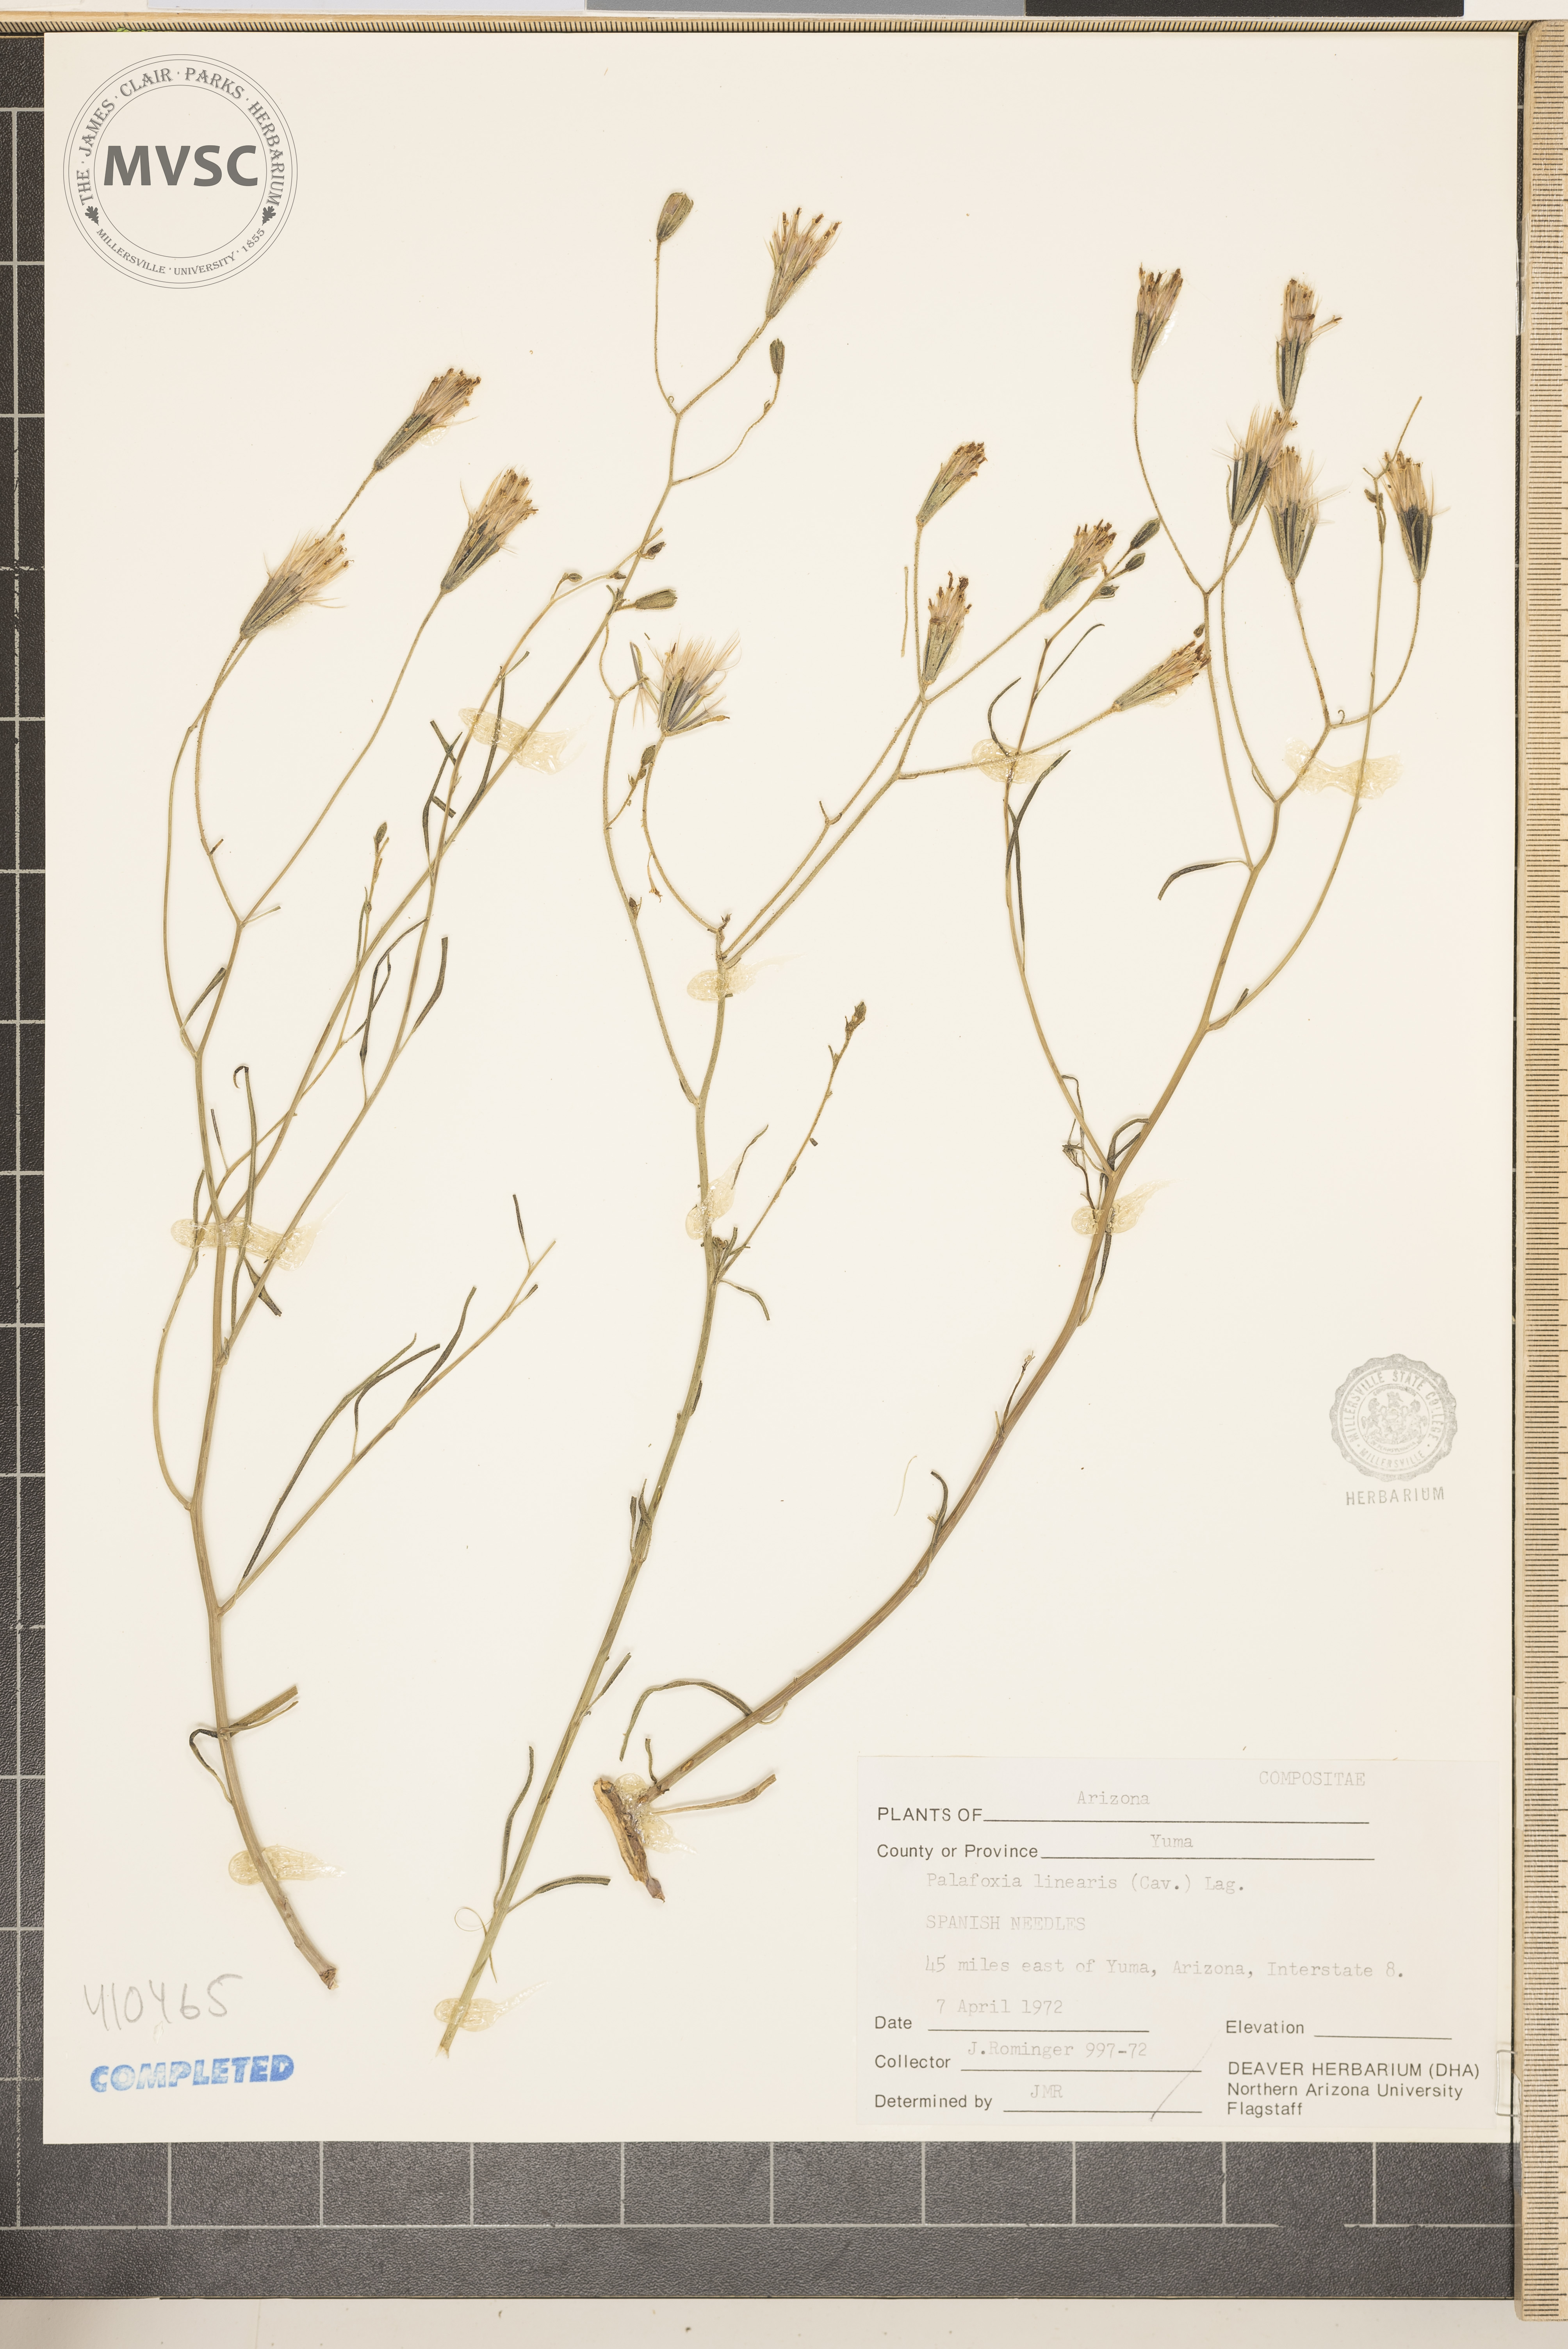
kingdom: Plantae
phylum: Tracheophyta
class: Magnoliopsida
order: Asterales
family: Asteraceae
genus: Palafoxia
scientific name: Palafoxia linearis
